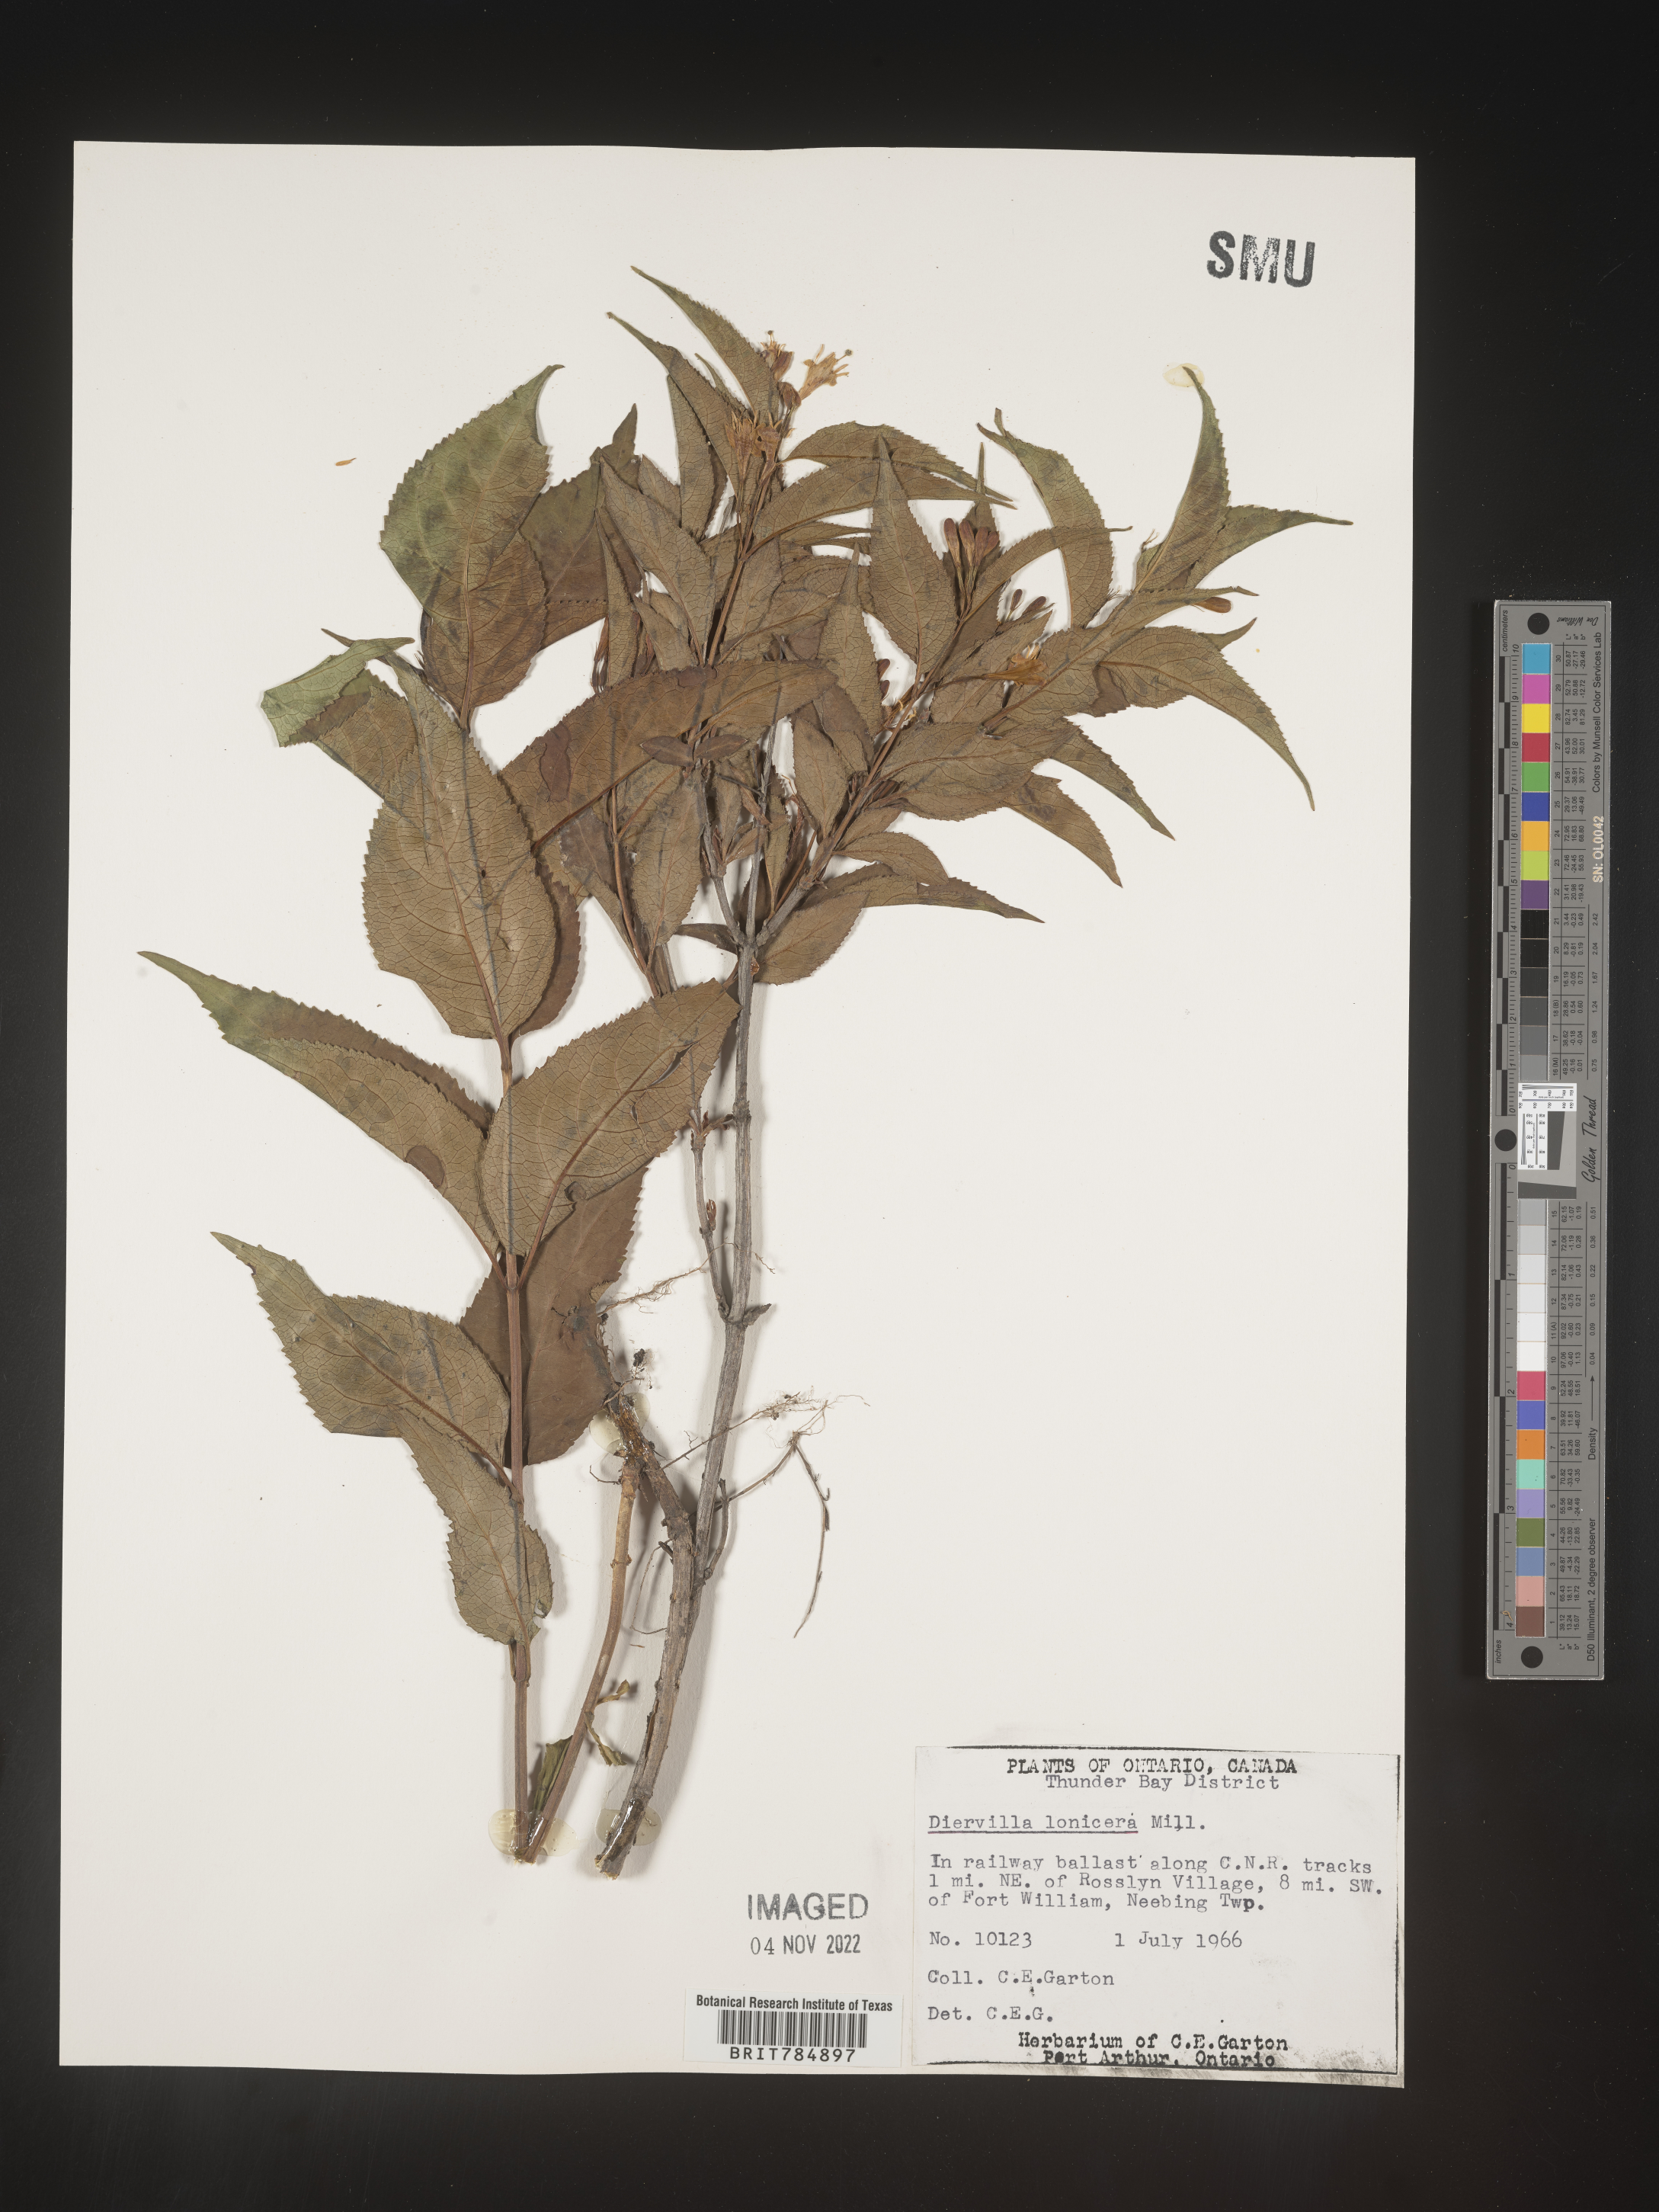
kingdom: Plantae
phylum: Tracheophyta
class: Magnoliopsida
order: Dipsacales
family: Caprifoliaceae
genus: Diervilla
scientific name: Diervilla lonicera
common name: Bush-honeysuckle
